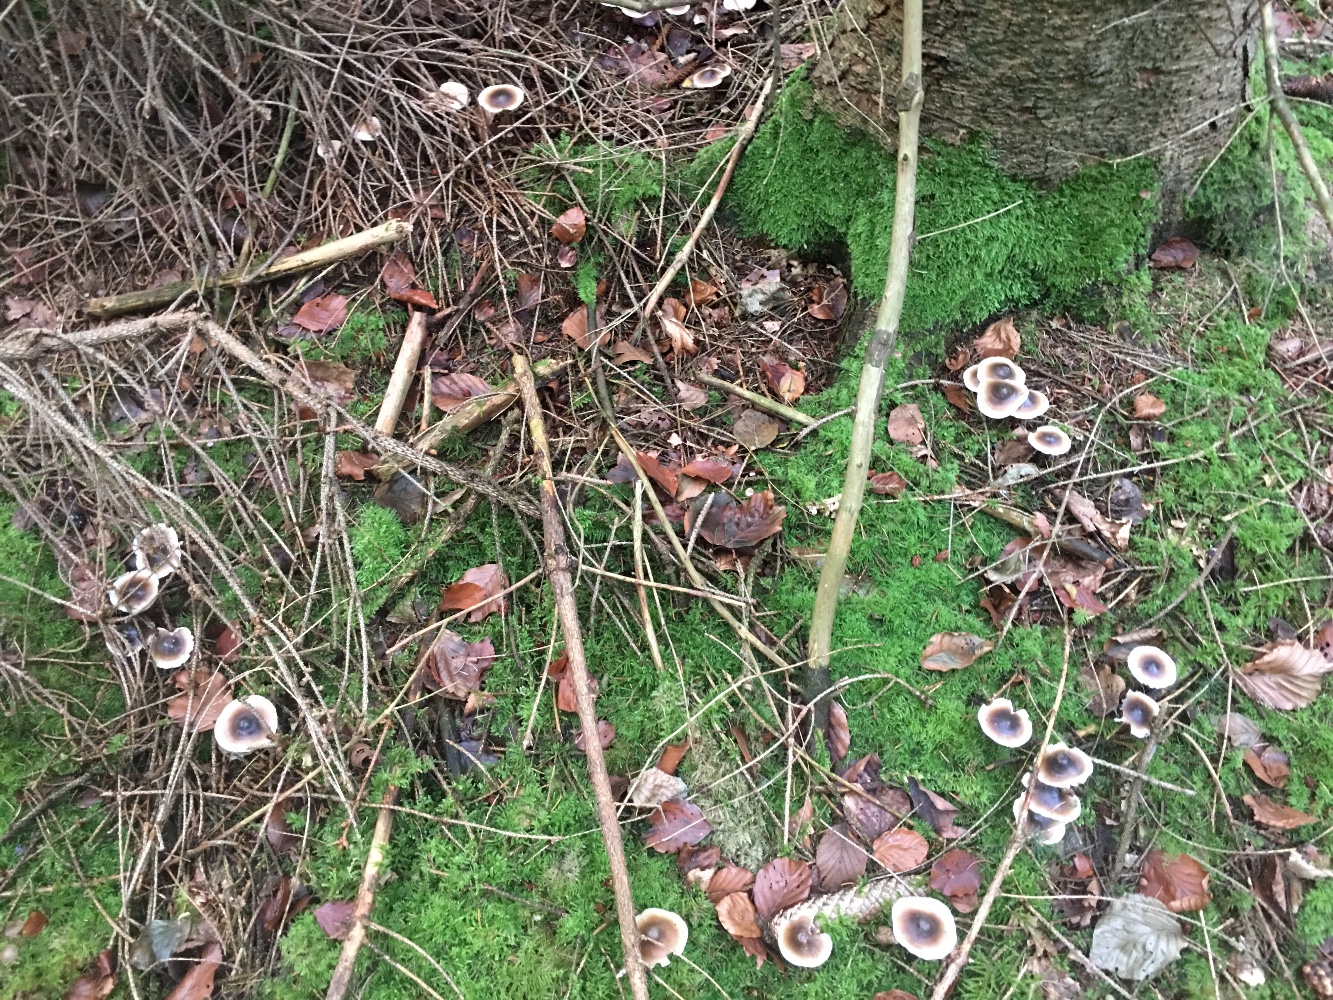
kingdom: Fungi
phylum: Basidiomycota
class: Agaricomycetes
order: Agaricales
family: Omphalotaceae
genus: Rhodocollybia
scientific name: Rhodocollybia asema
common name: horngrå fladhat
